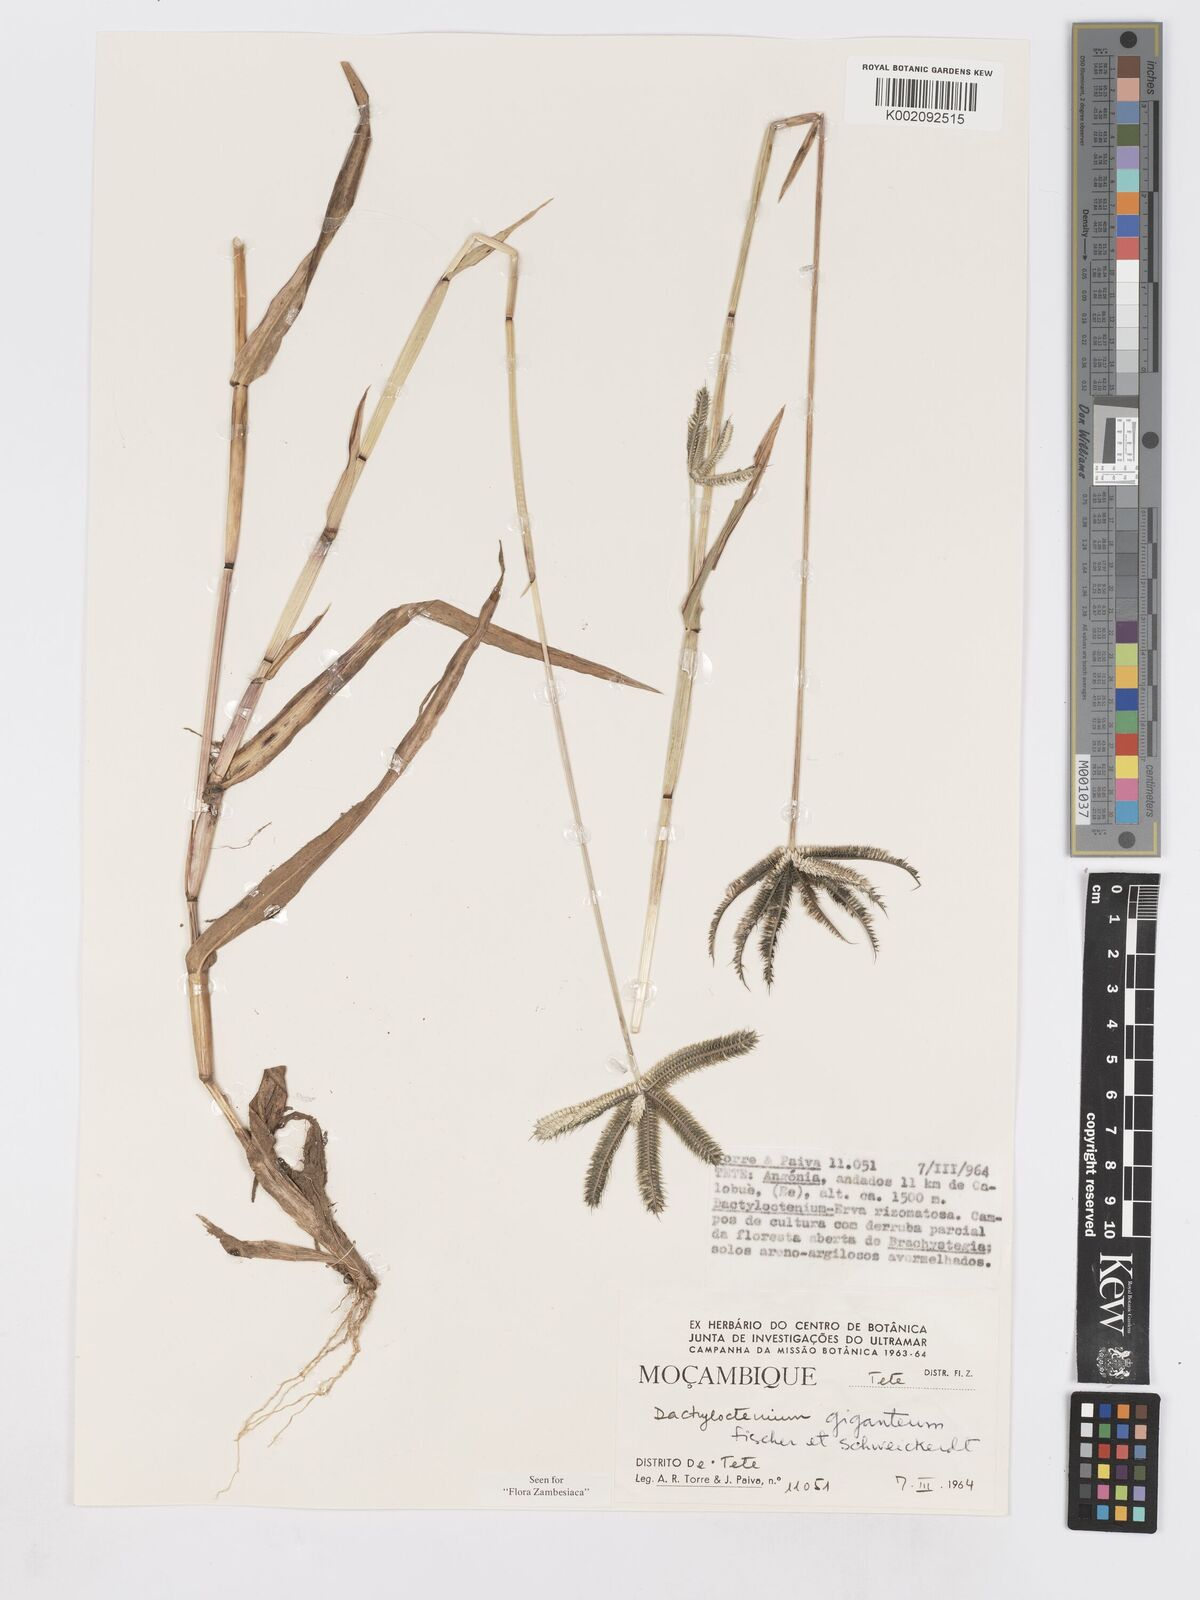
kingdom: Plantae
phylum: Tracheophyta
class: Liliopsida
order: Poales
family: Poaceae
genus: Dactyloctenium
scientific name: Dactyloctenium aegyptium
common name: Egyptian grass
